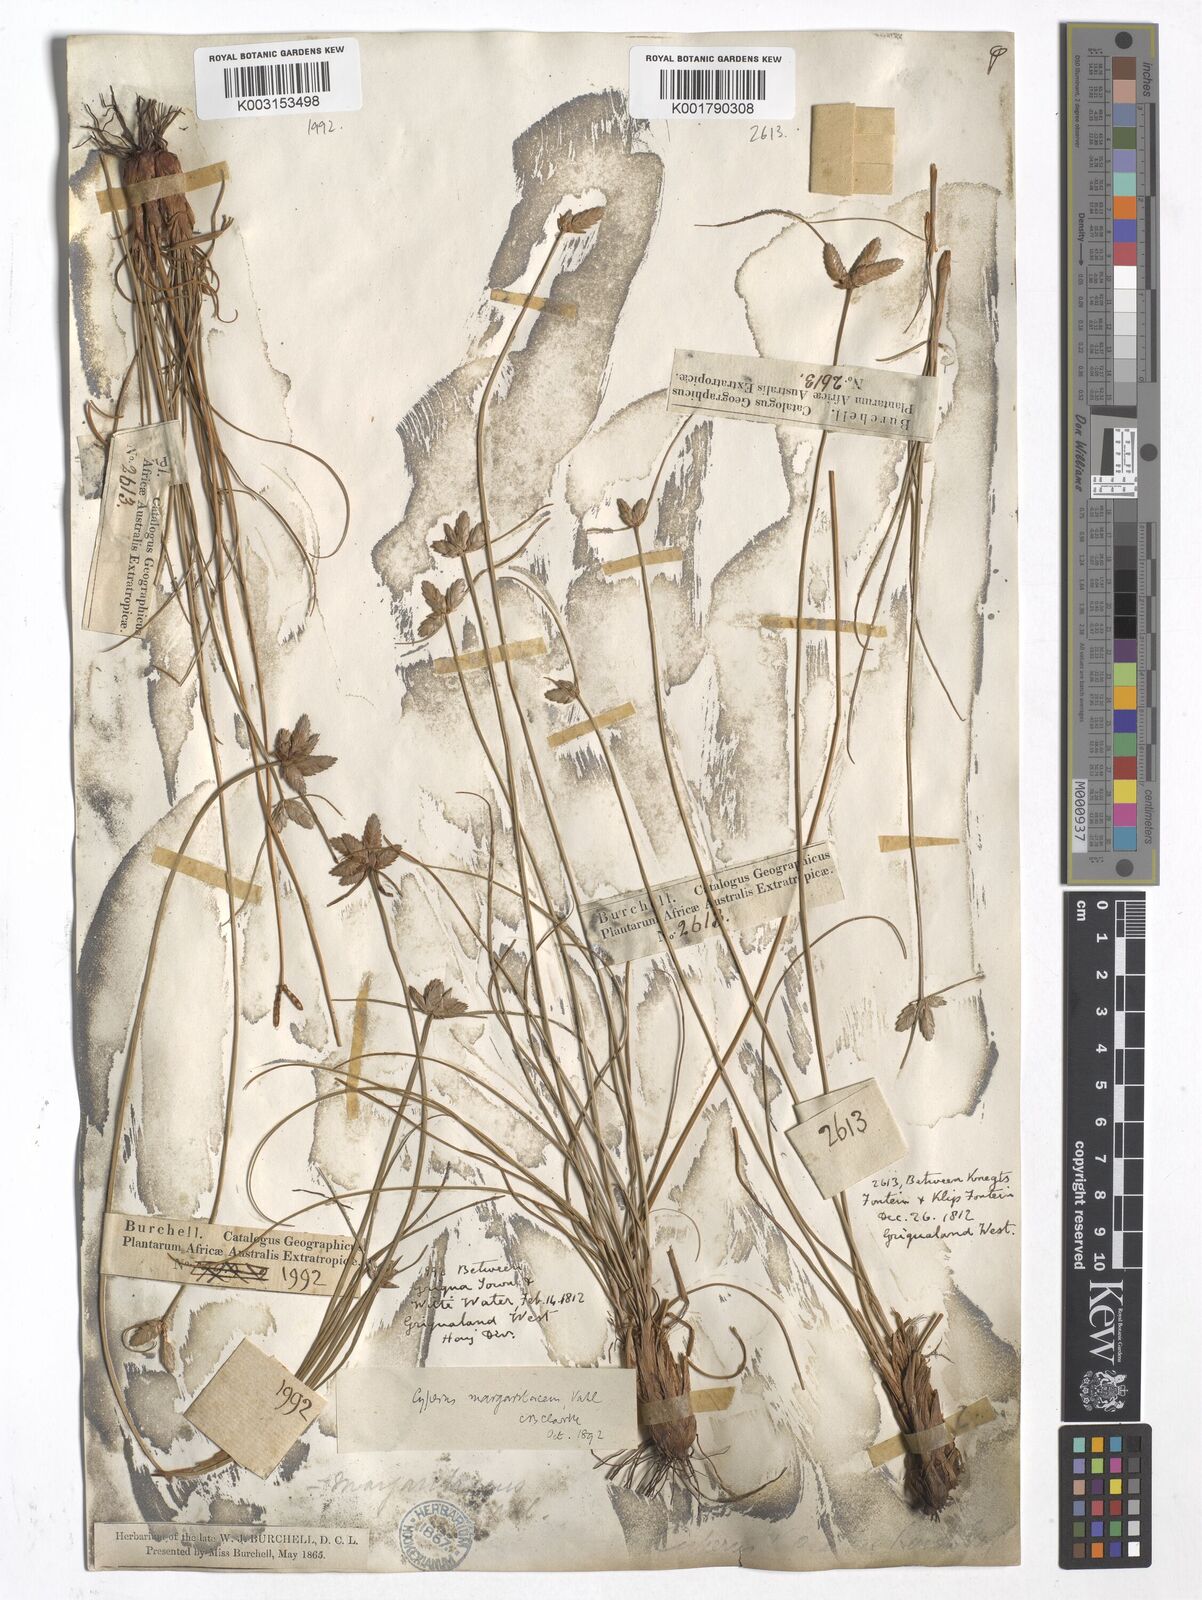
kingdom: Plantae
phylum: Tracheophyta
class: Liliopsida
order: Poales
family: Cyperaceae
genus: Cyperus
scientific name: Cyperus margaritaceus
